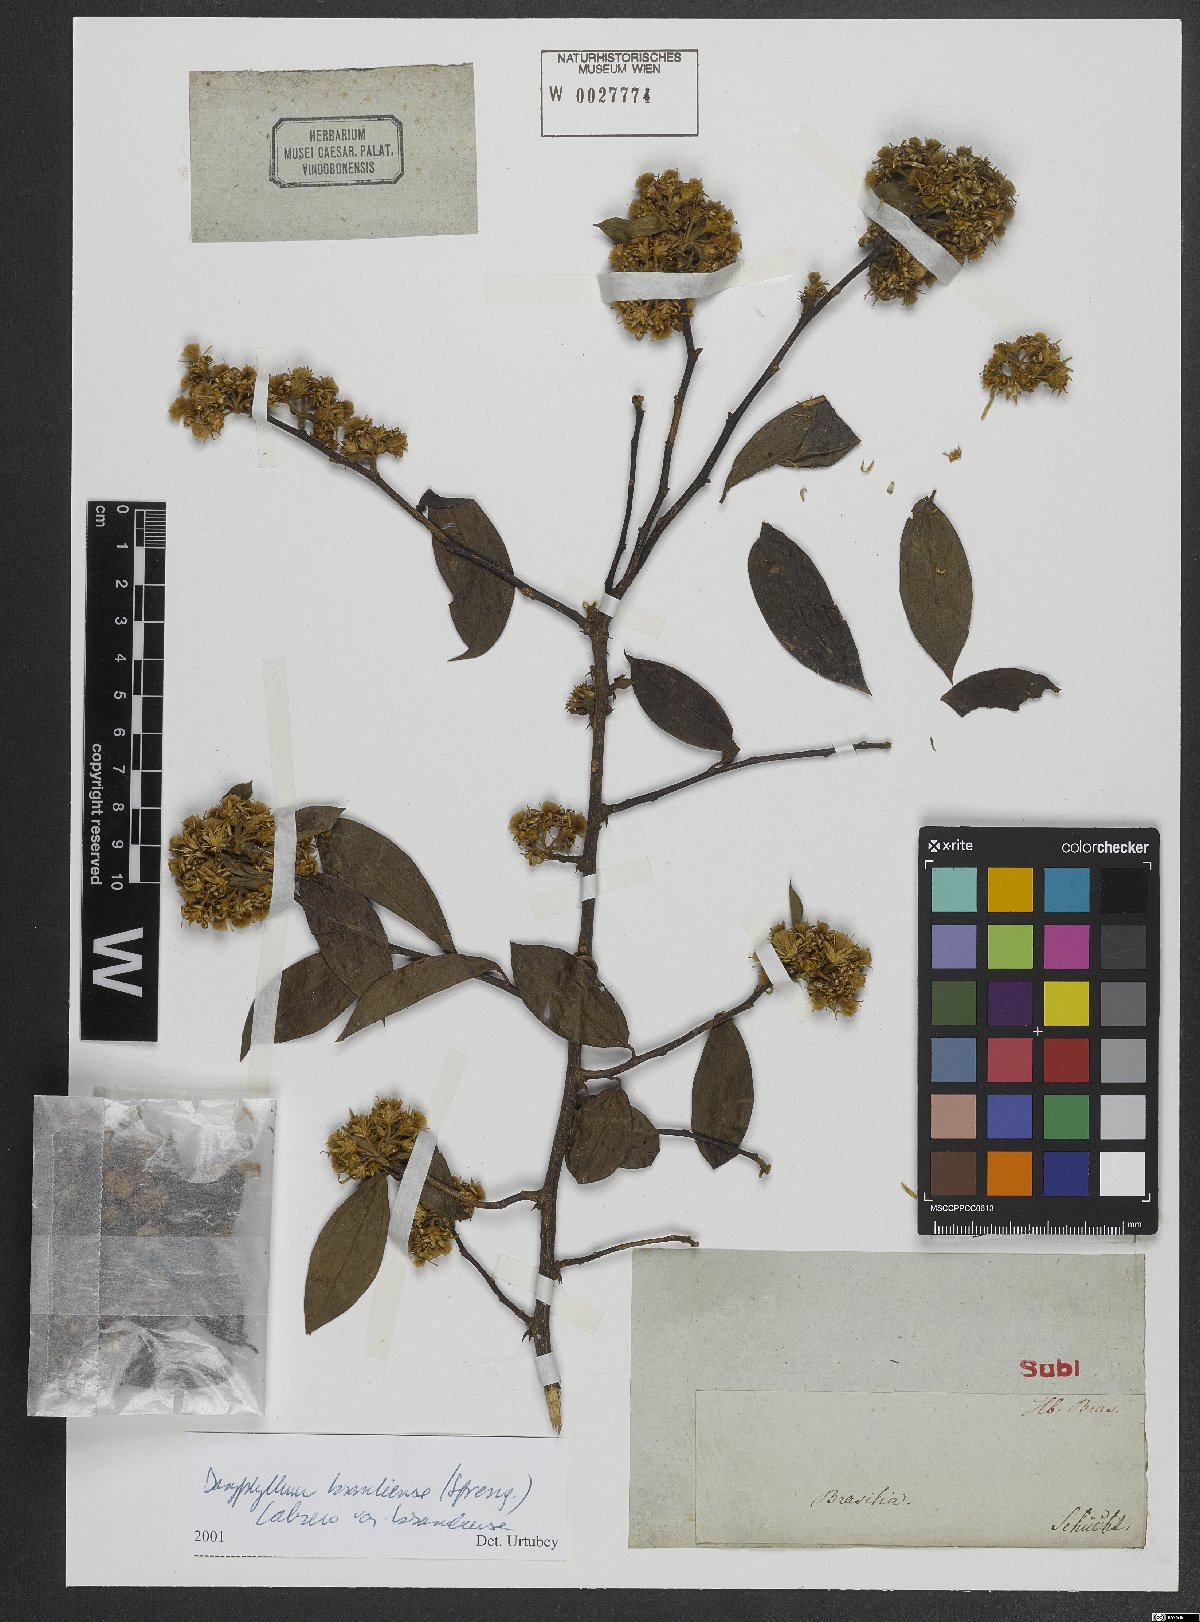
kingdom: Plantae
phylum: Tracheophyta
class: Magnoliopsida
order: Asterales
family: Asteraceae
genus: Dasyphyllum
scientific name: Dasyphyllum brasiliense
